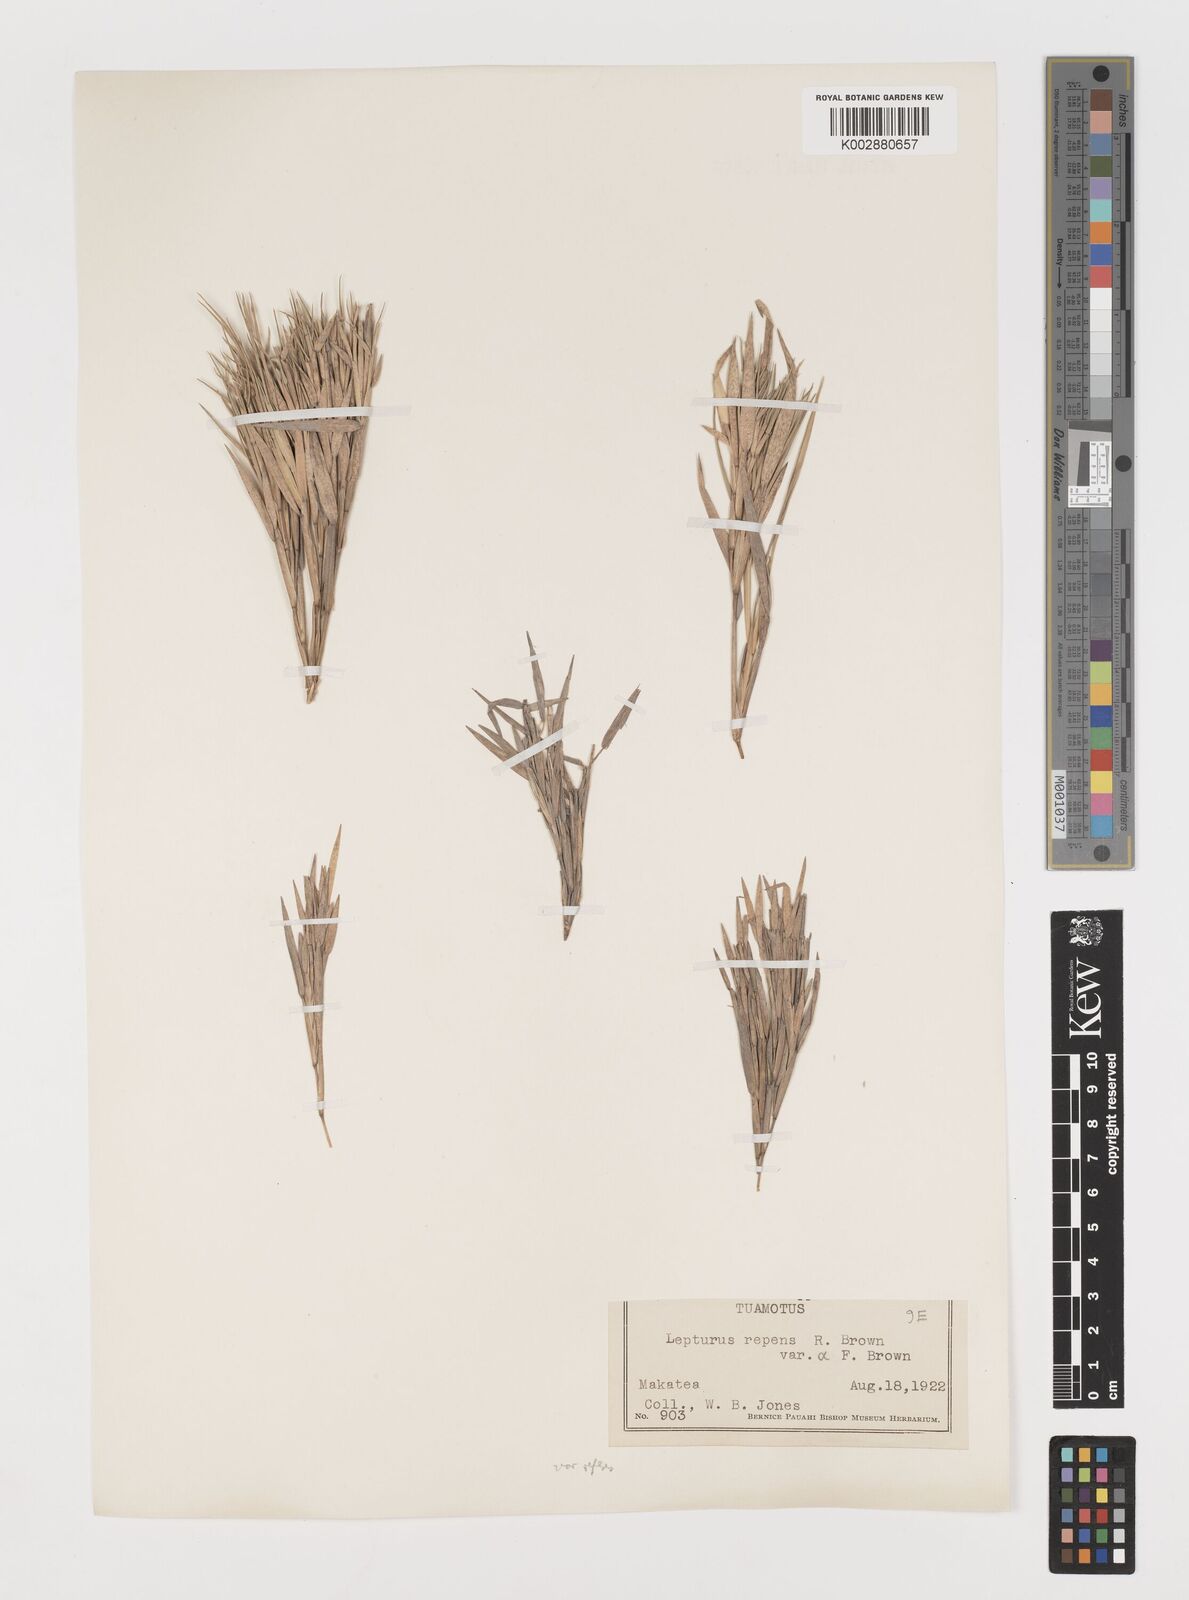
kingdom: Plantae
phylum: Tracheophyta
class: Liliopsida
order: Poales
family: Poaceae
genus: Lepturus
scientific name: Lepturus repens
